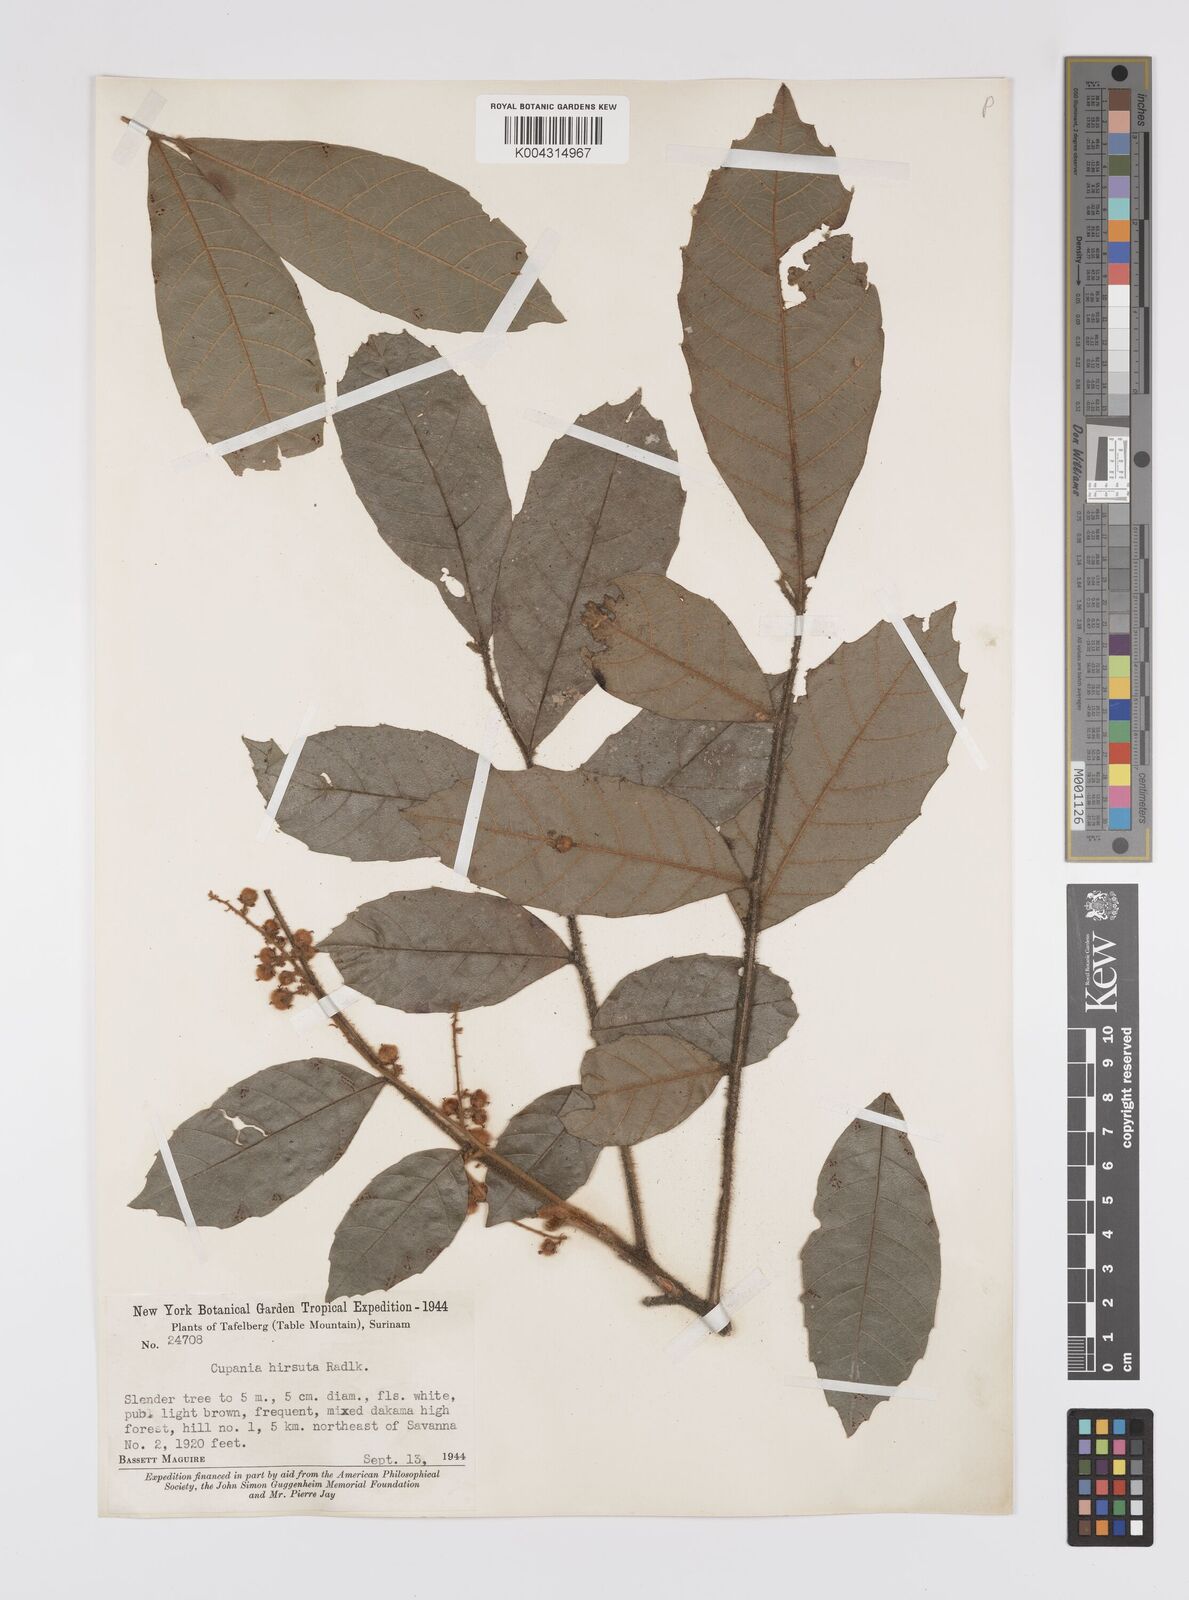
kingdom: Plantae
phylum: Tracheophyta
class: Magnoliopsida
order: Sapindales
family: Sapindaceae
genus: Cupania
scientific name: Cupania hirsuta
